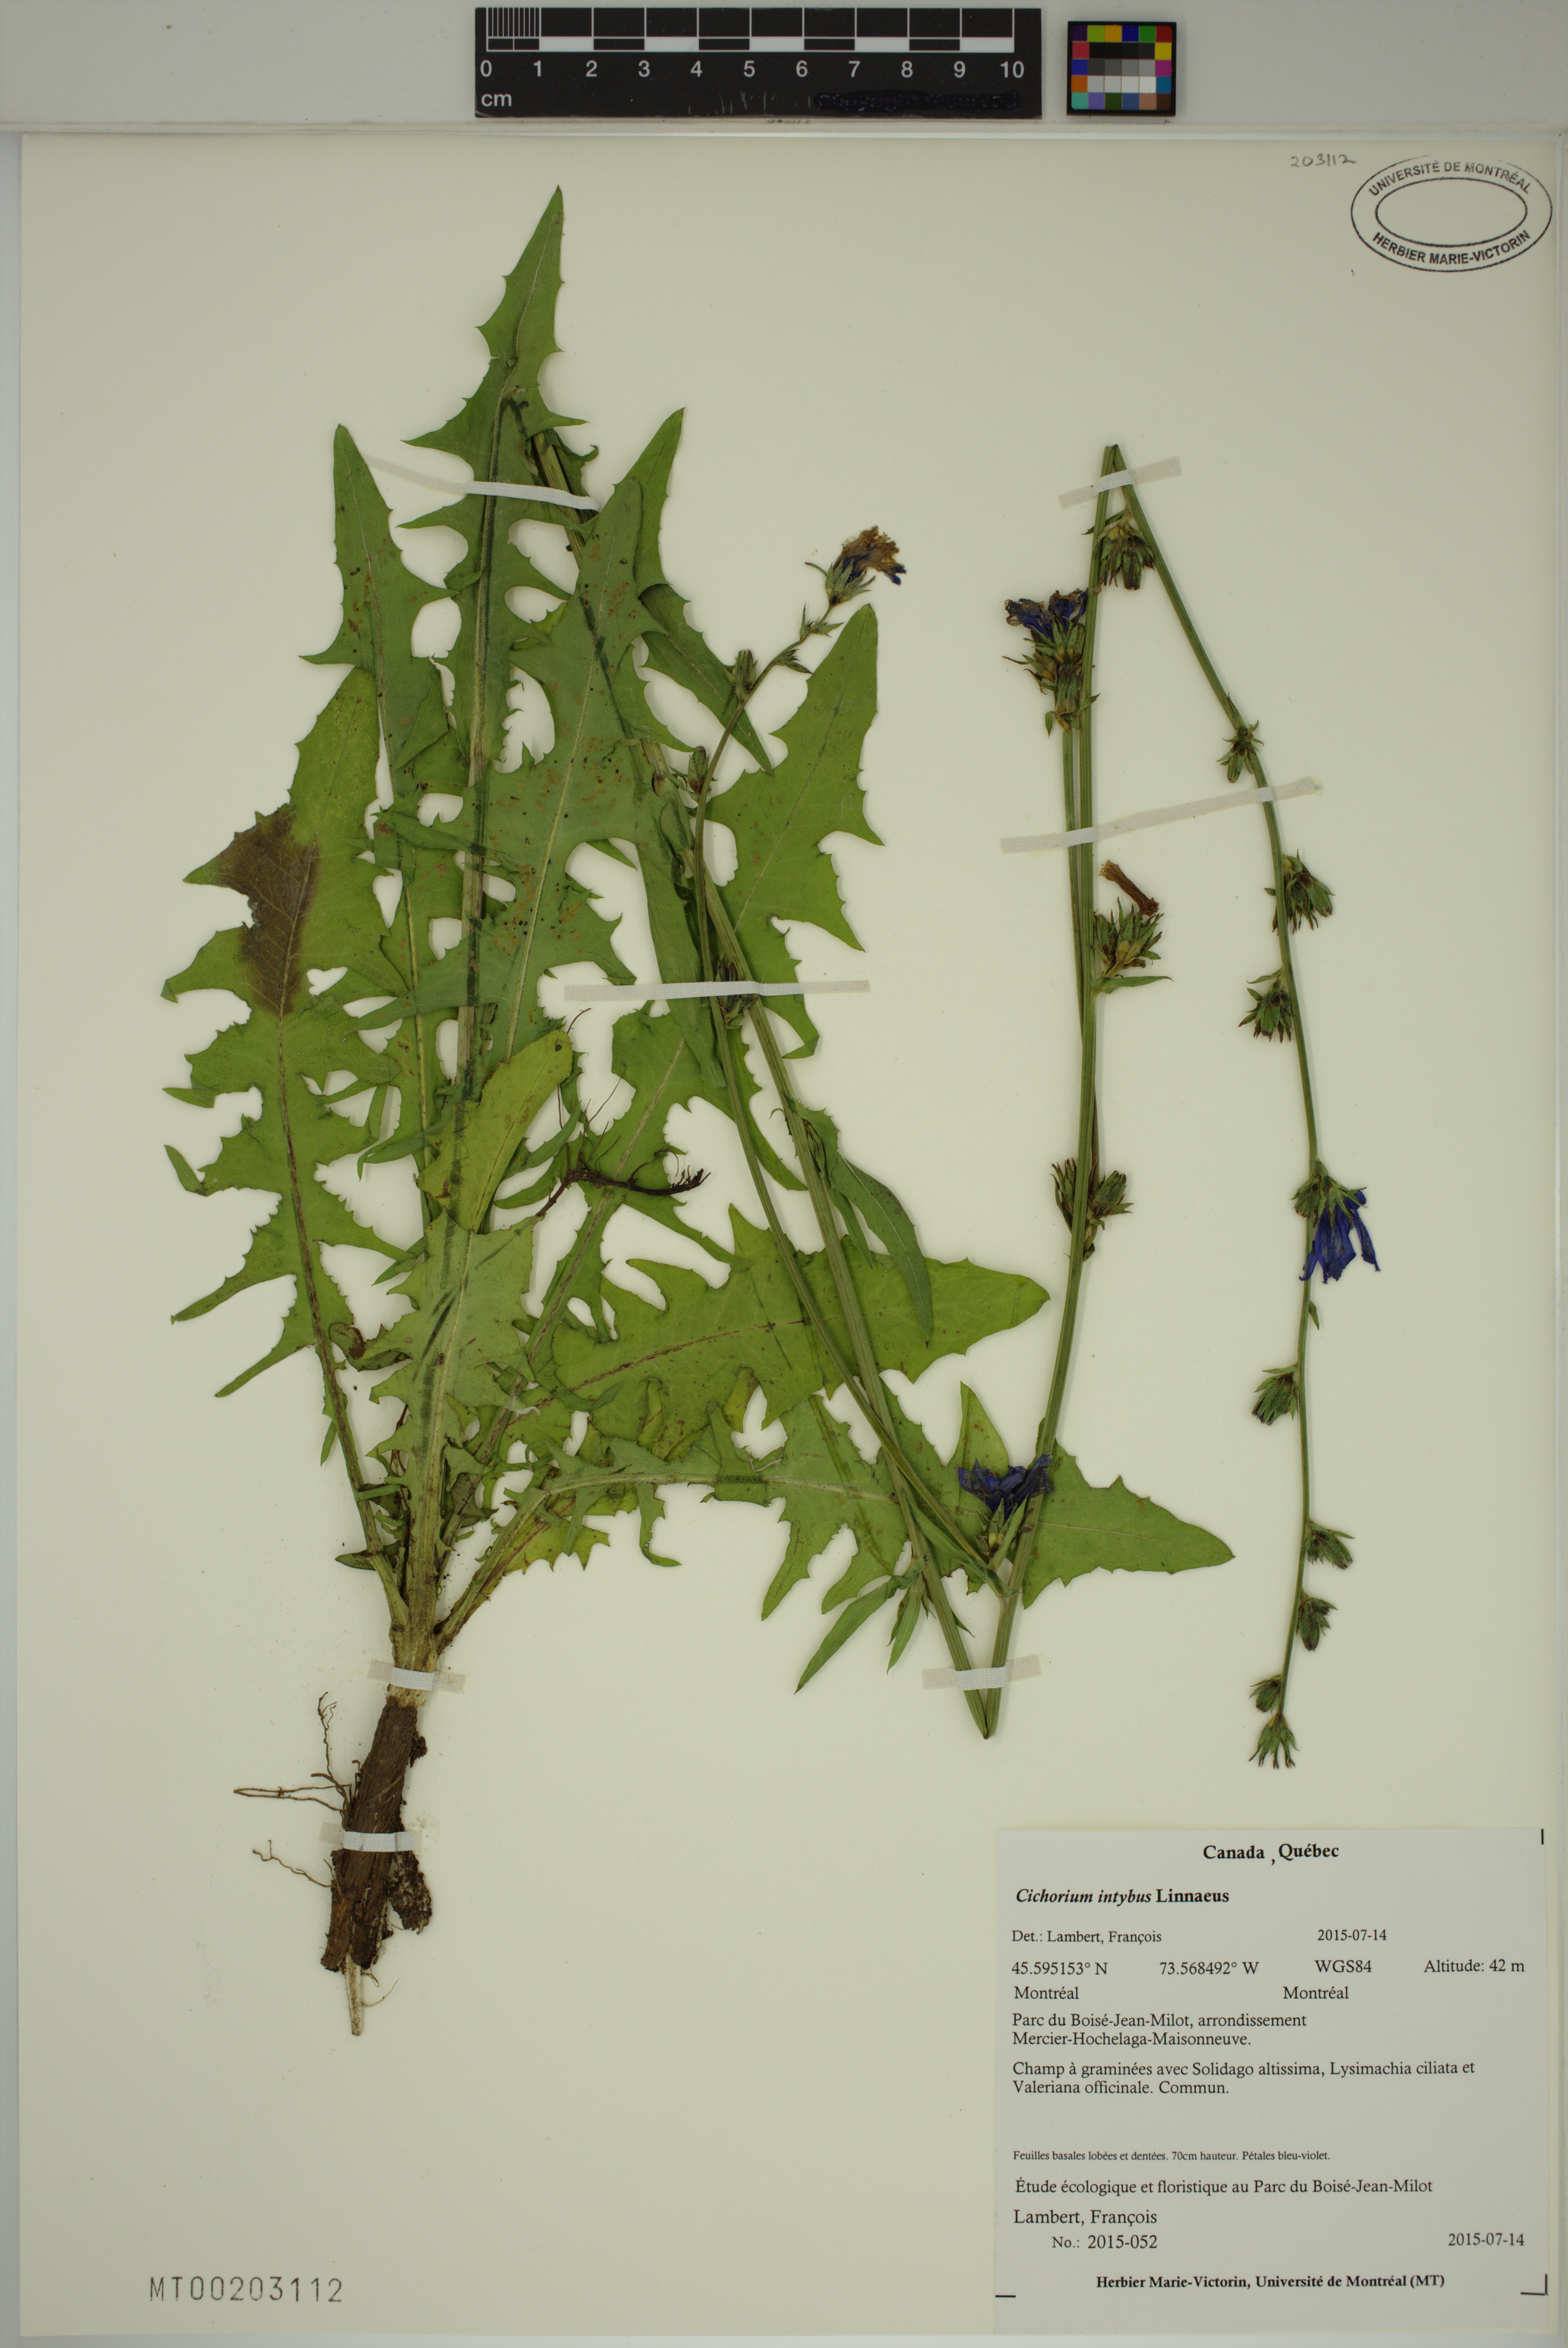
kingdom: Plantae
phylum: Tracheophyta
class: Magnoliopsida
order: Asterales
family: Asteraceae
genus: Cichorium
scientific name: Cichorium intybus
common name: Chicory
